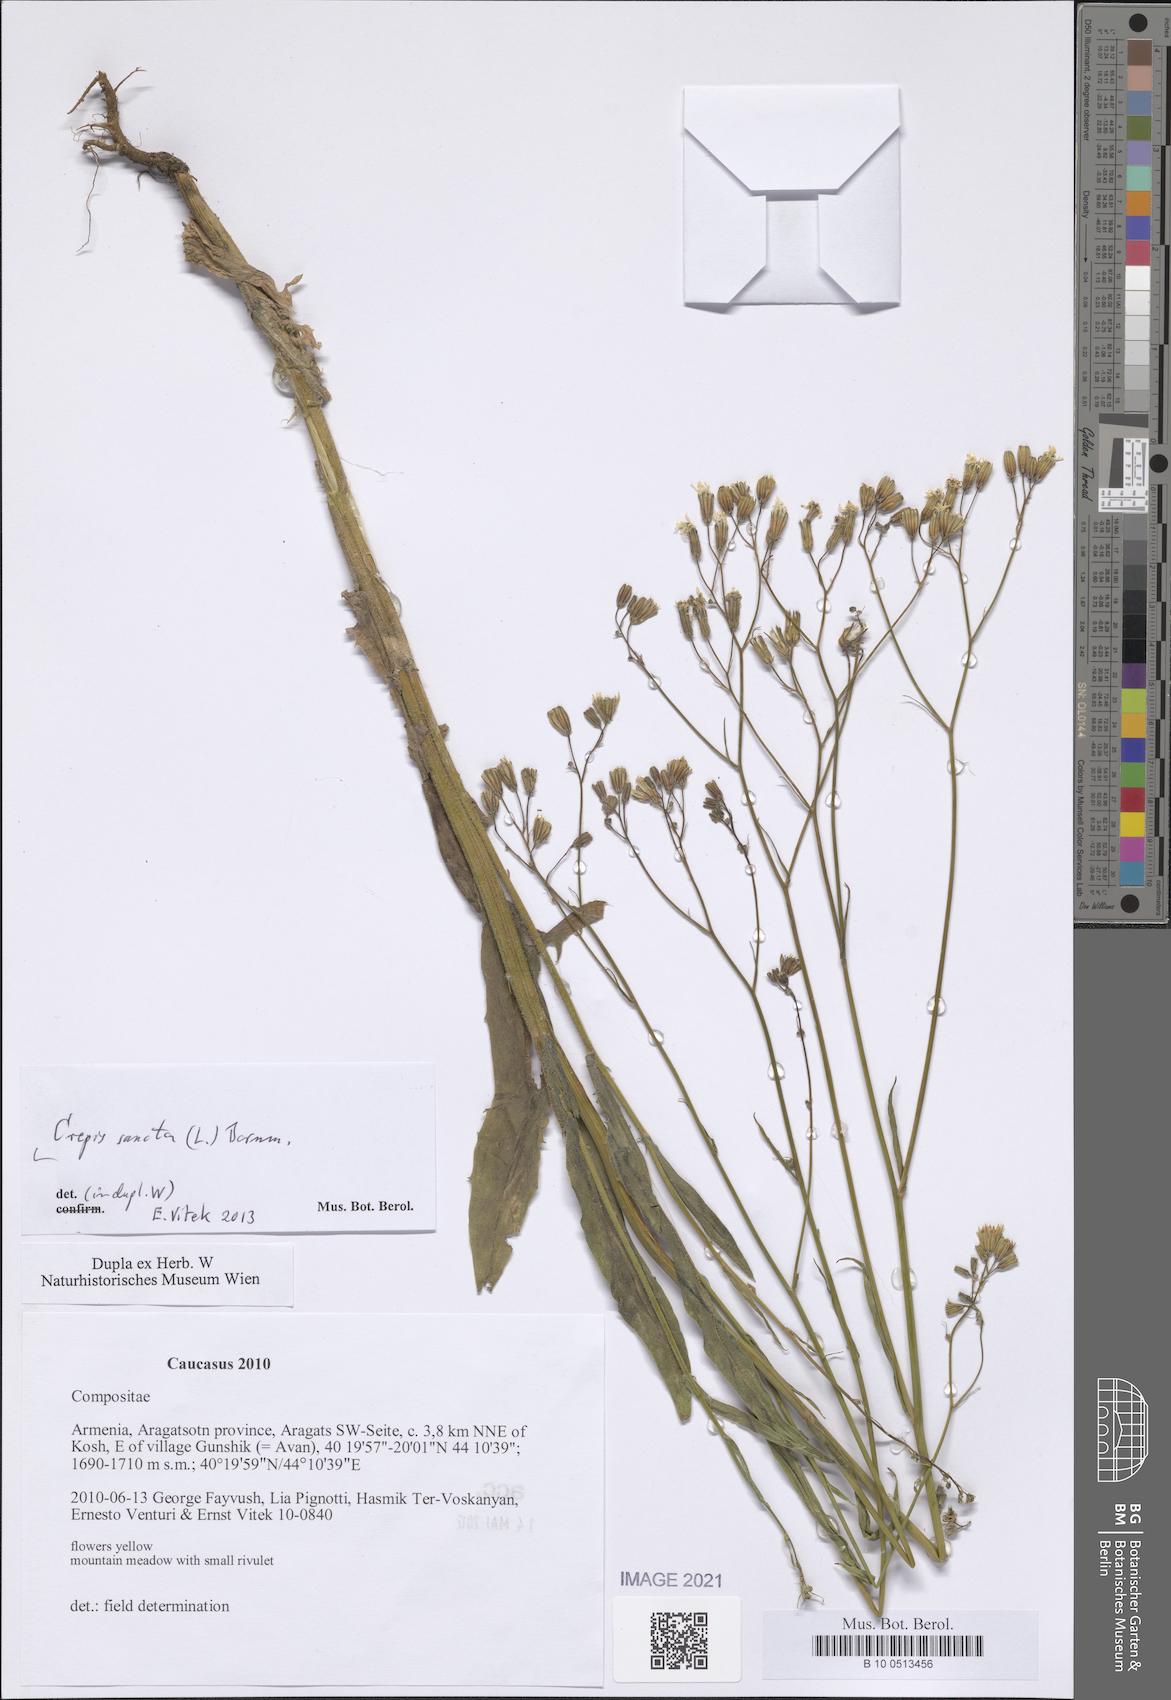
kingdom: Plantae
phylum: Tracheophyta
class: Magnoliopsida
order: Asterales
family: Asteraceae
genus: Crepis
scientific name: Crepis sancta
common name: Hawk's-beard
